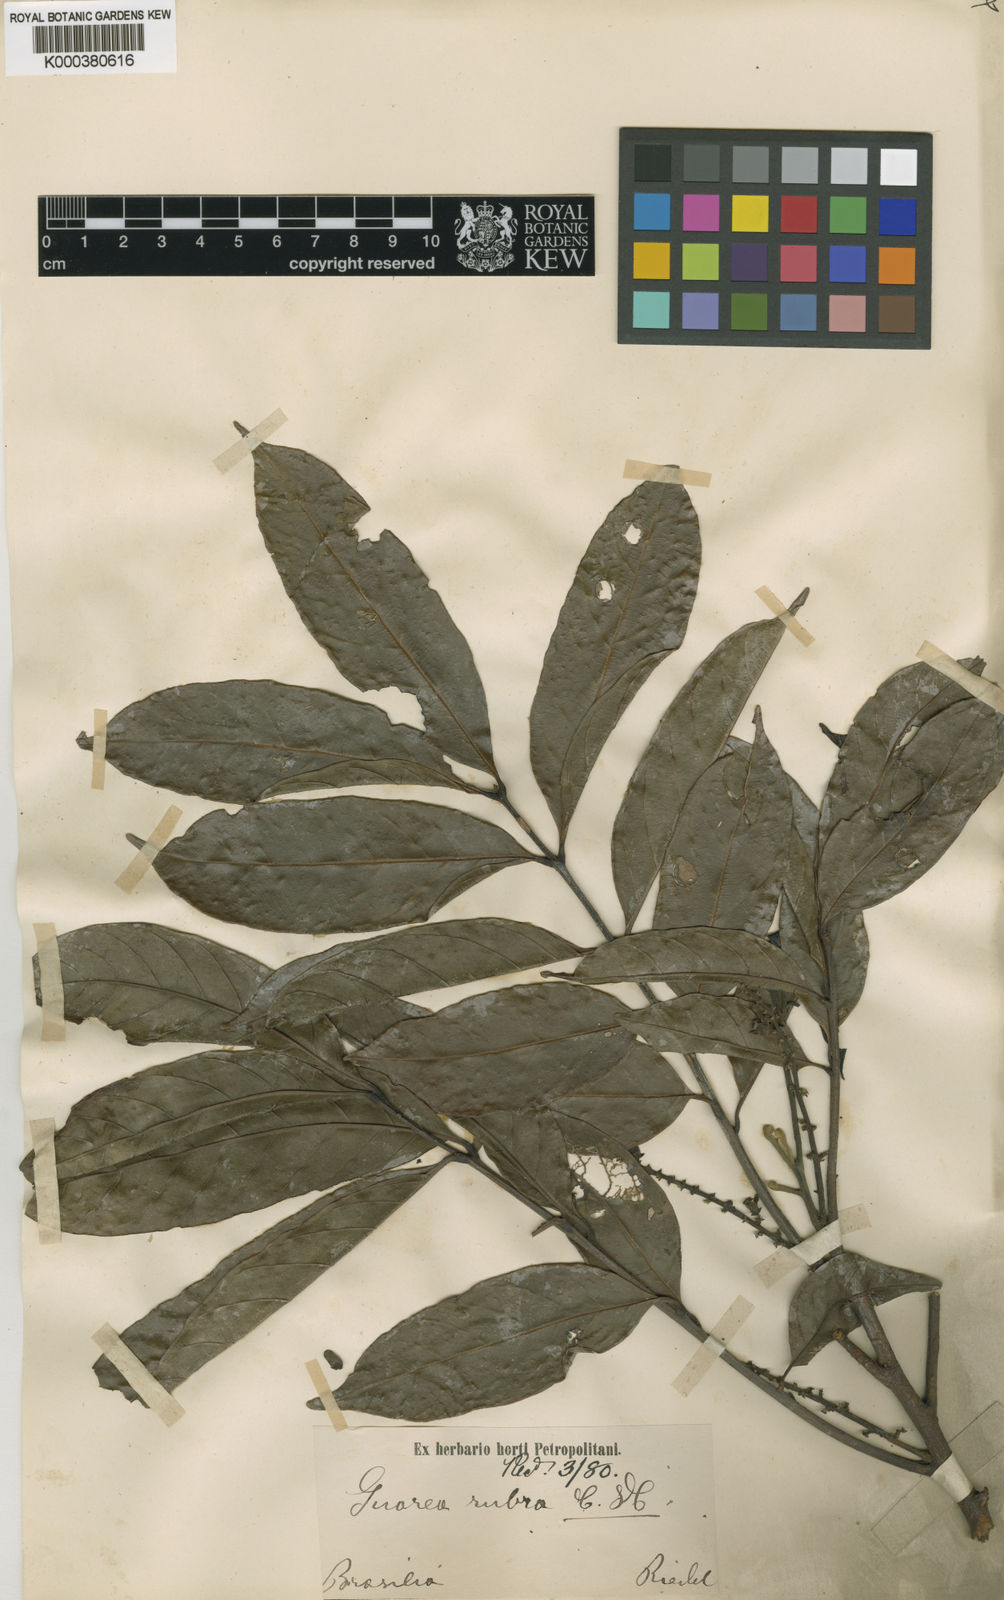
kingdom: Plantae
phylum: Tracheophyta
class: Magnoliopsida
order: Sapindales
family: Meliaceae
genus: Guarea
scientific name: Guarea macrophylla
